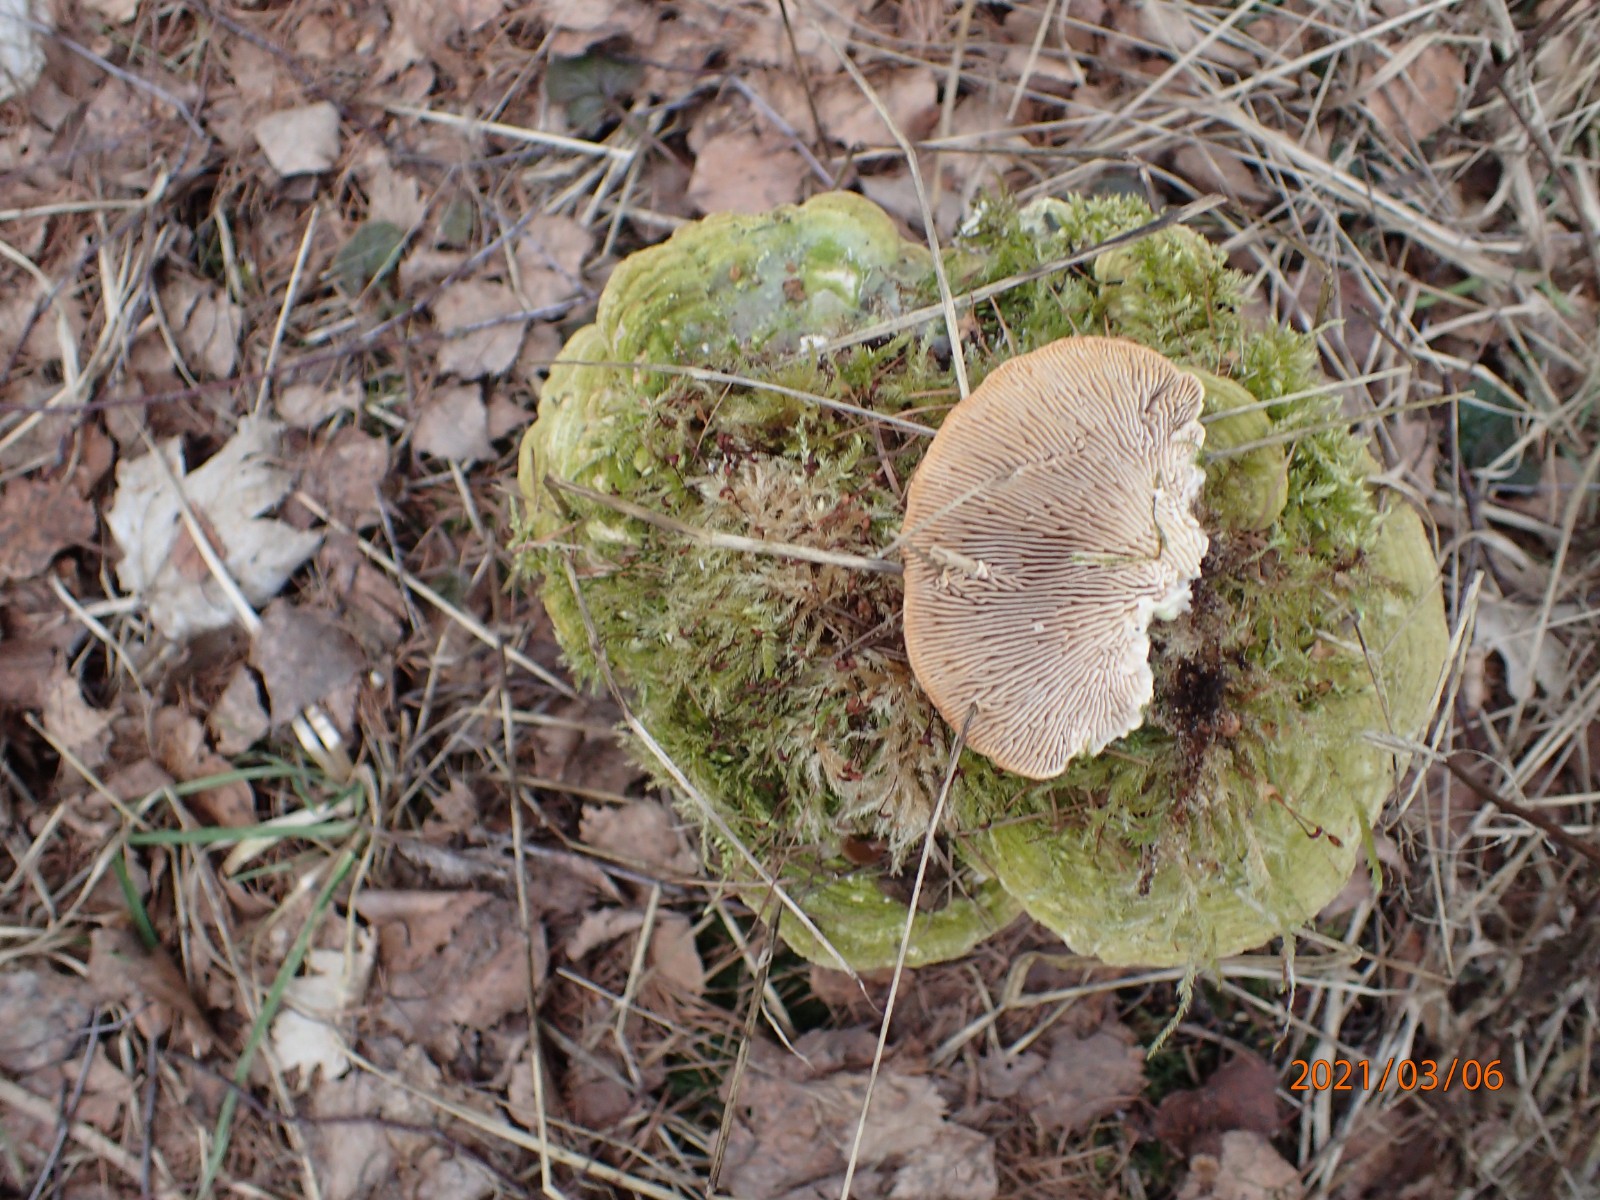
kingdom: Fungi
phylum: Basidiomycota
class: Agaricomycetes
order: Polyporales
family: Polyporaceae
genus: Lenzites
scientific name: Lenzites betulinus
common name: birke-læderporesvamp
